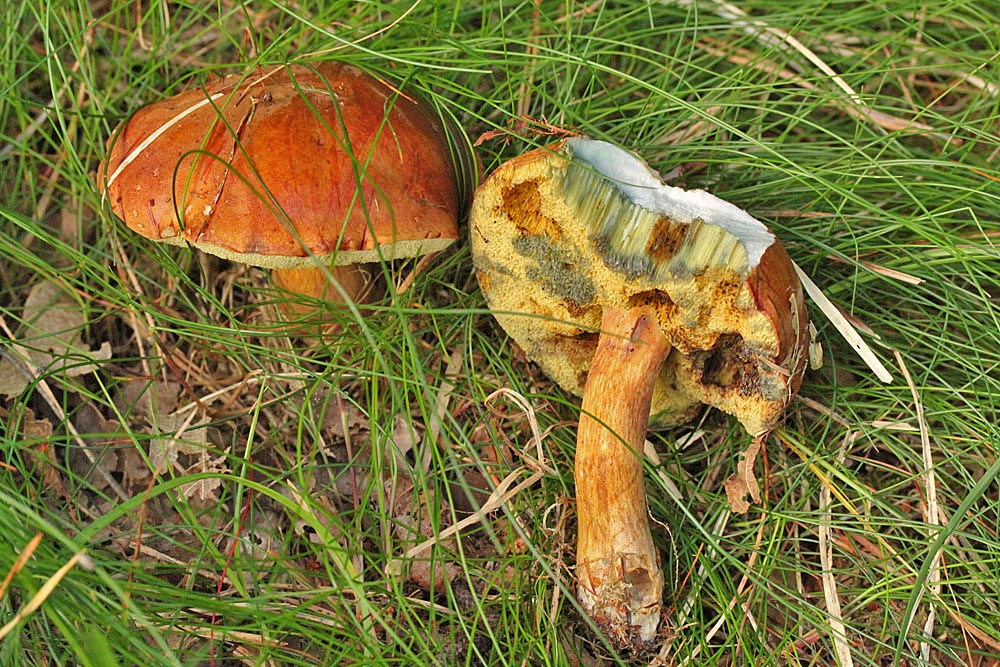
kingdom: Fungi
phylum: Basidiomycota
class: Agaricomycetes
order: Boletales
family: Boletaceae
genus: Imleria
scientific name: Imleria badia
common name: brunstokket rørhat
